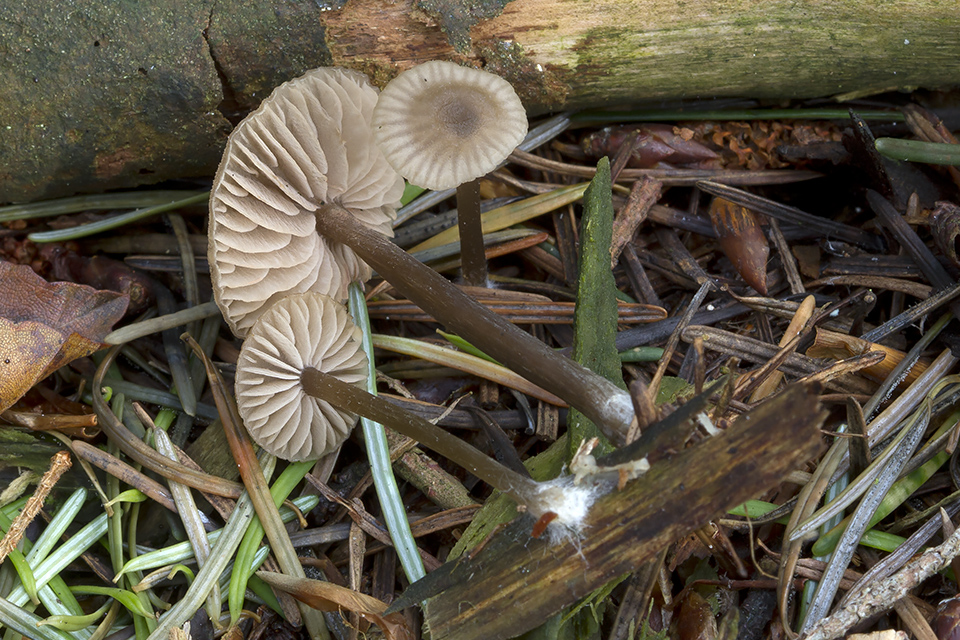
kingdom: Fungi
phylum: Basidiomycota
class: Agaricomycetes
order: Agaricales
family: Entolomataceae
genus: Entoloma
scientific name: Entoloma
